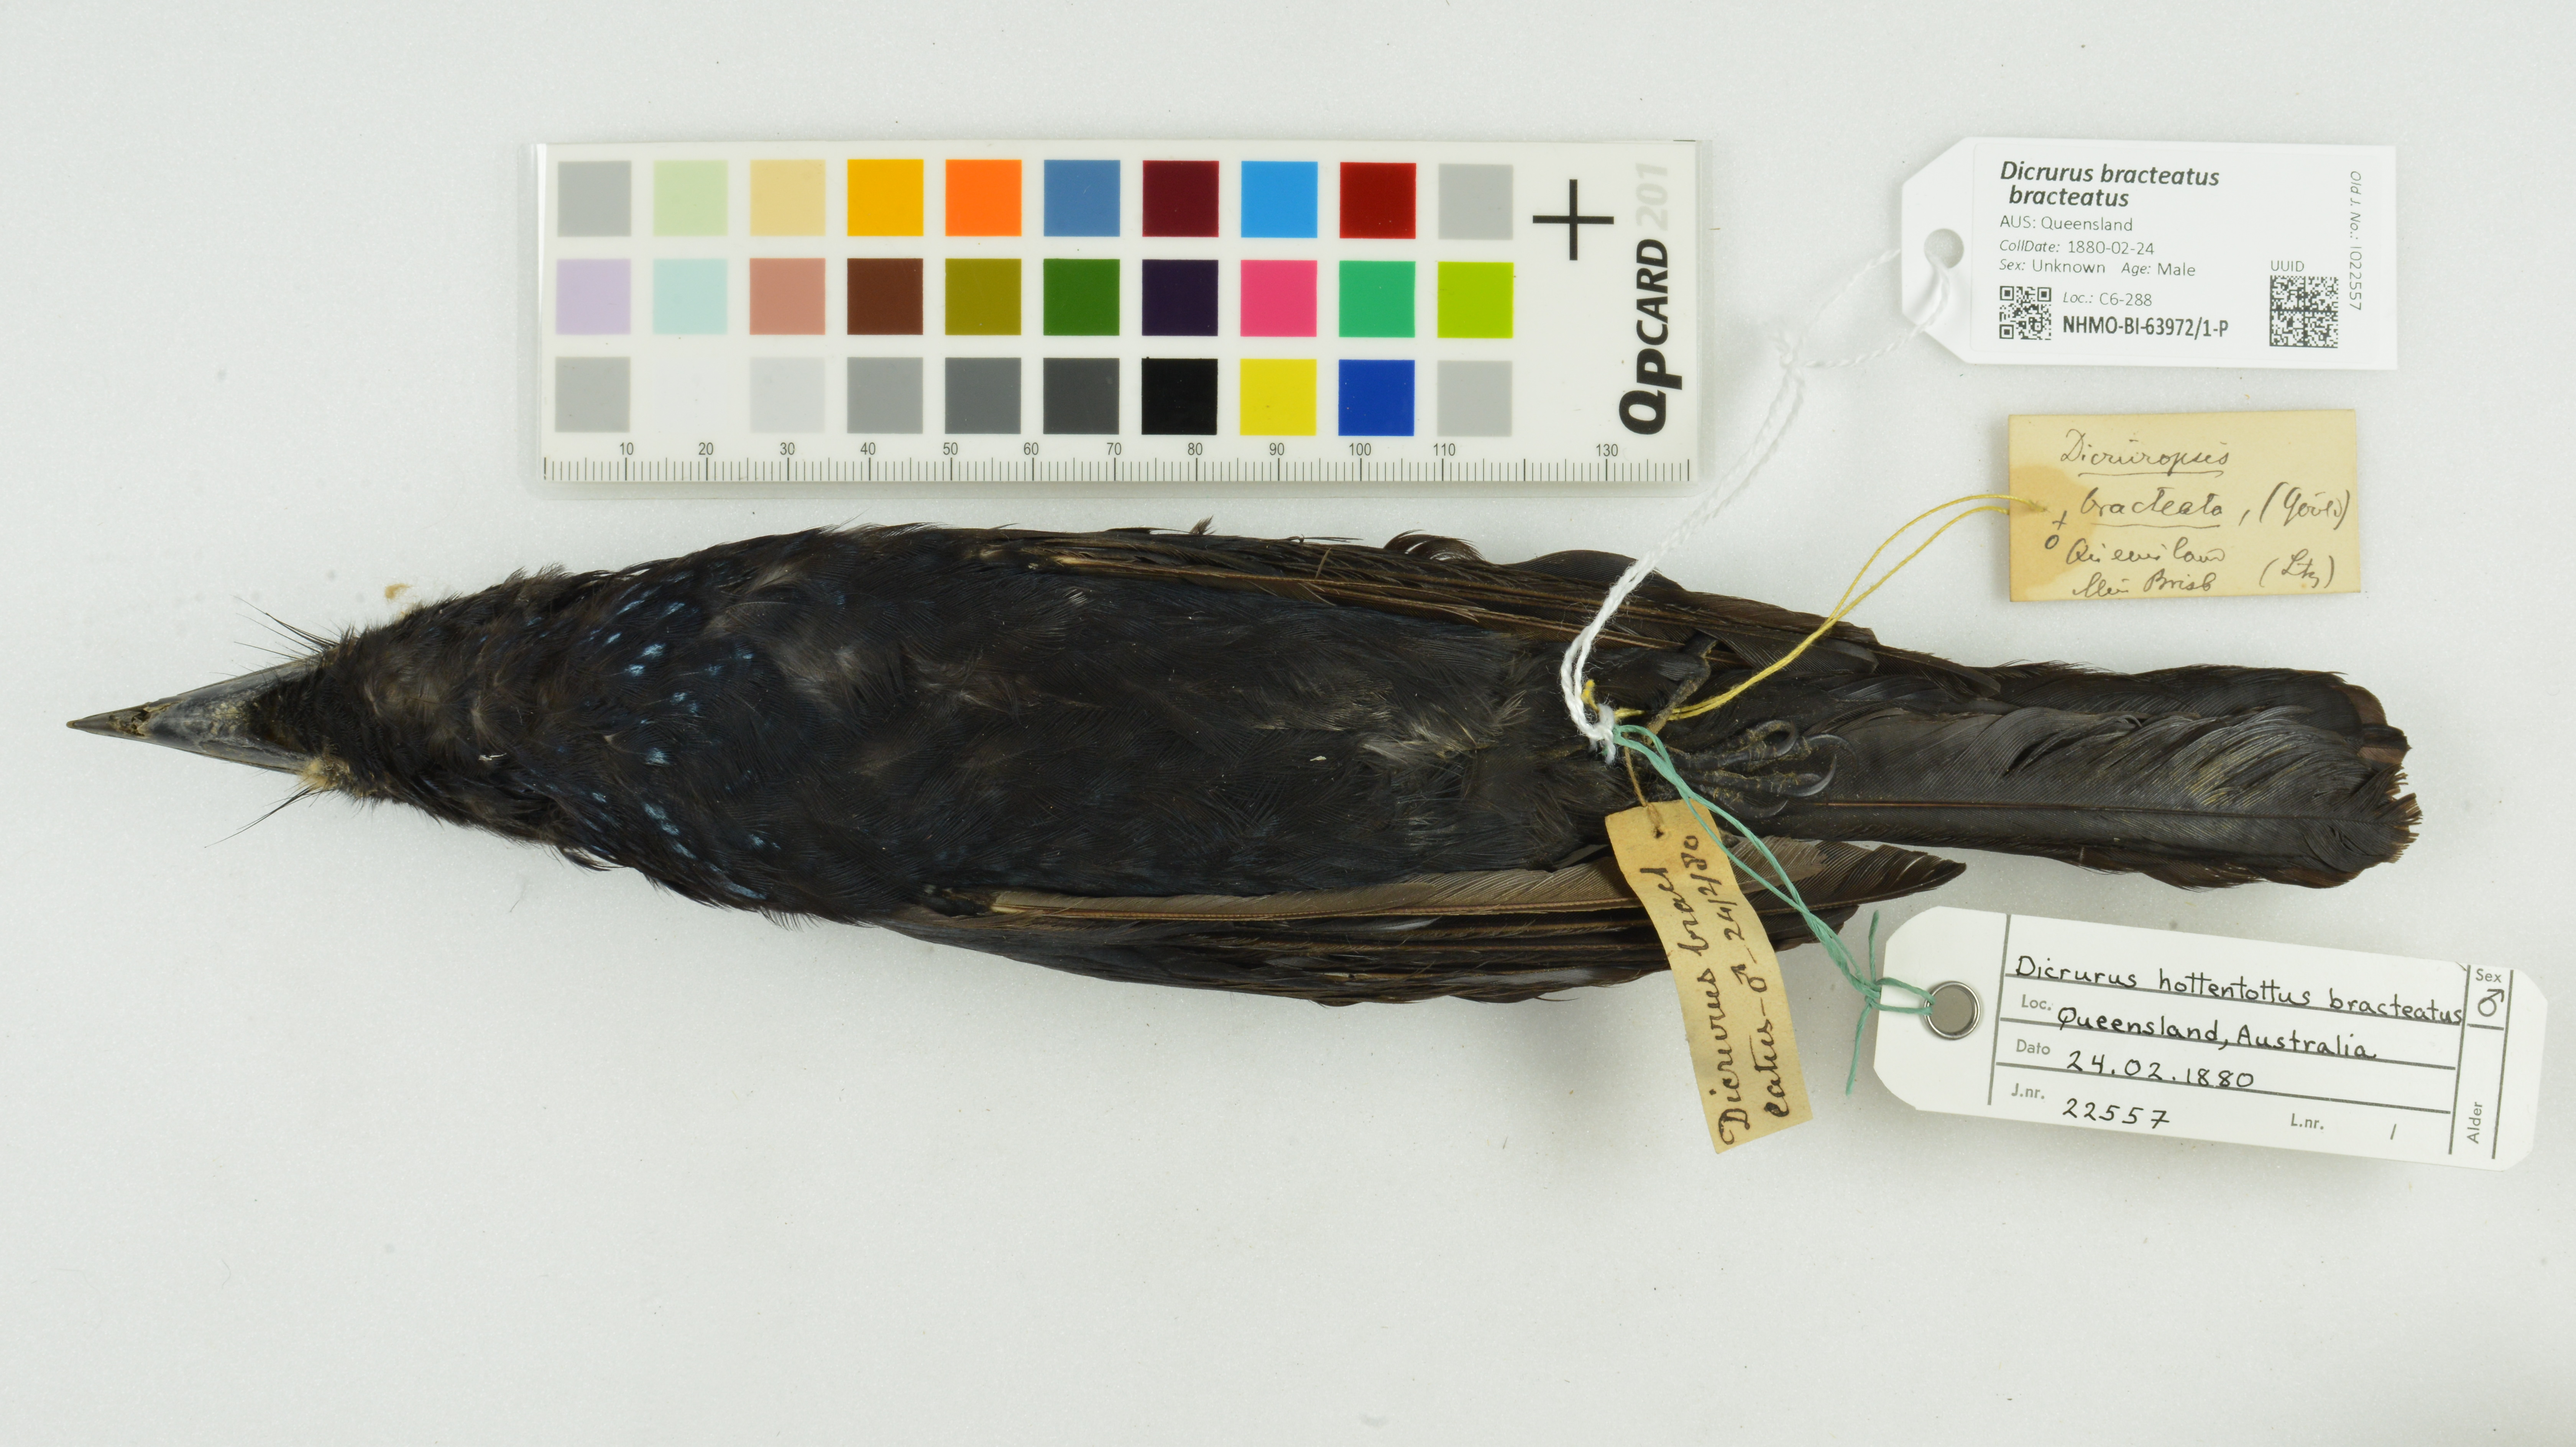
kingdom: Animalia
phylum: Chordata
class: Aves
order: Passeriformes
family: Dicruridae
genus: Dicrurus
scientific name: Dicrurus bracteatus
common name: Spangled drongo
